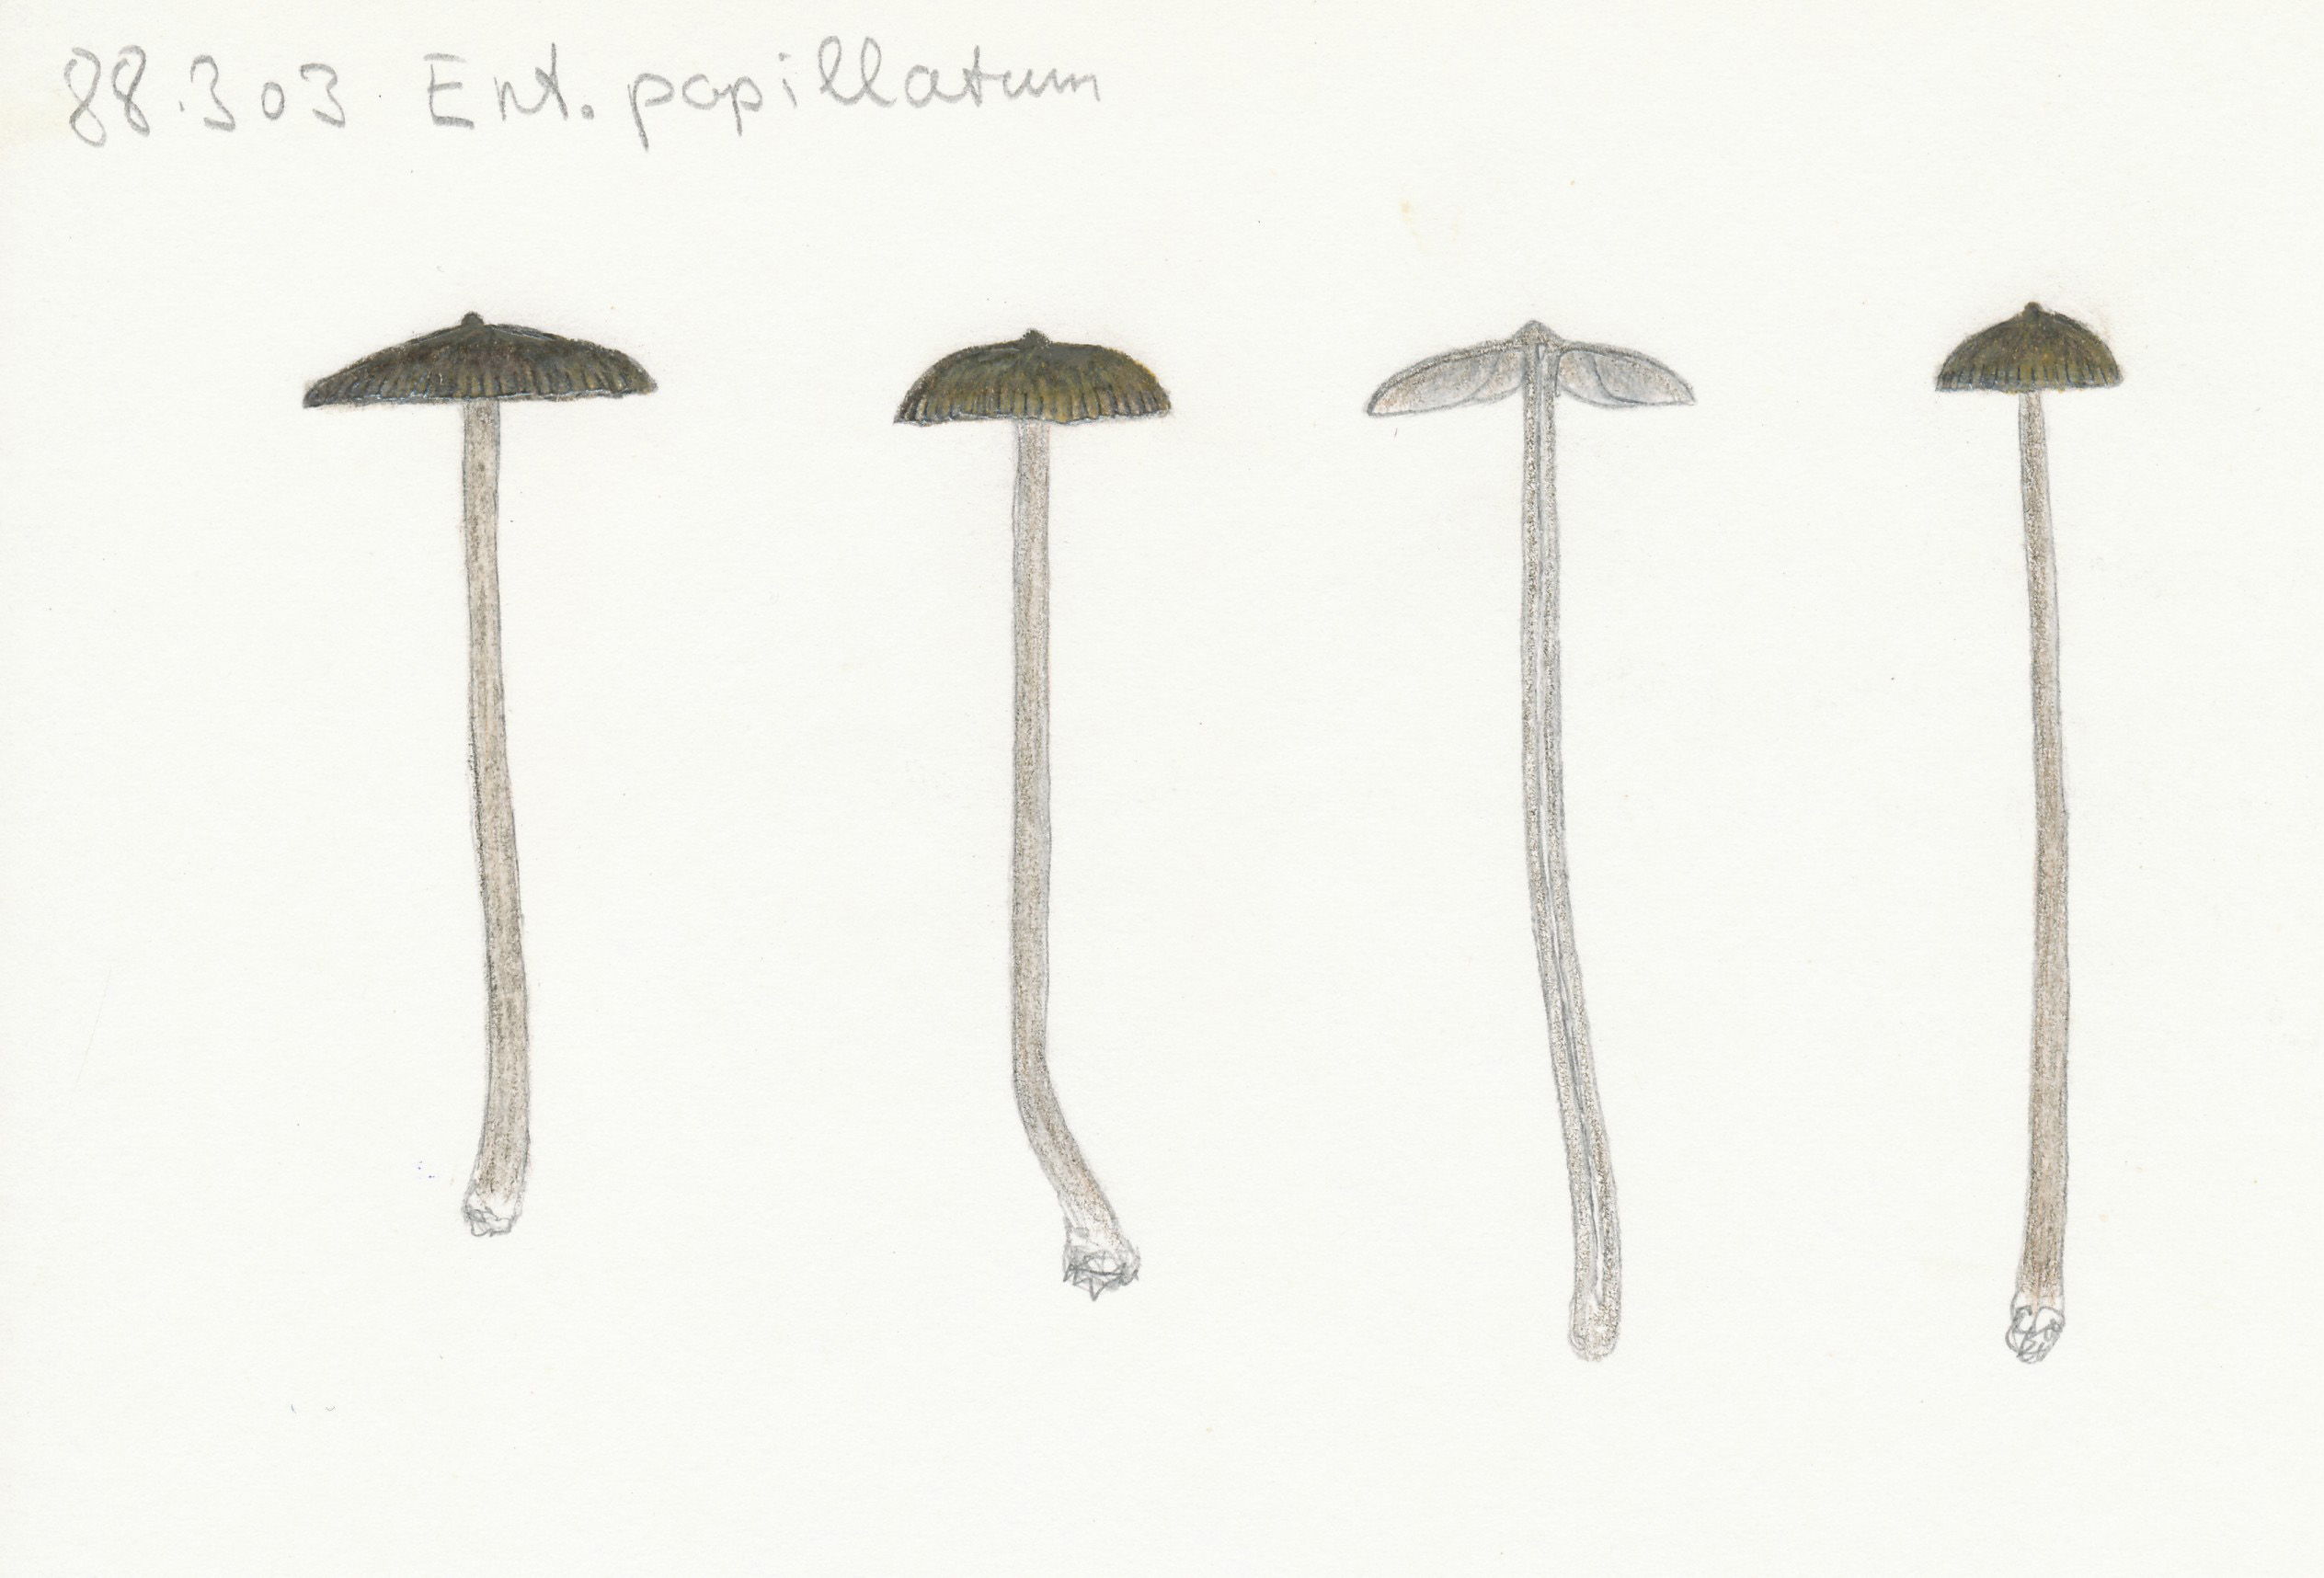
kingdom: Fungi
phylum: Basidiomycota
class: Agaricomycetes
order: Agaricales
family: Entolomataceae
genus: Entoloma
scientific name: Entoloma clandestinum
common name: tykbladet rødblad
